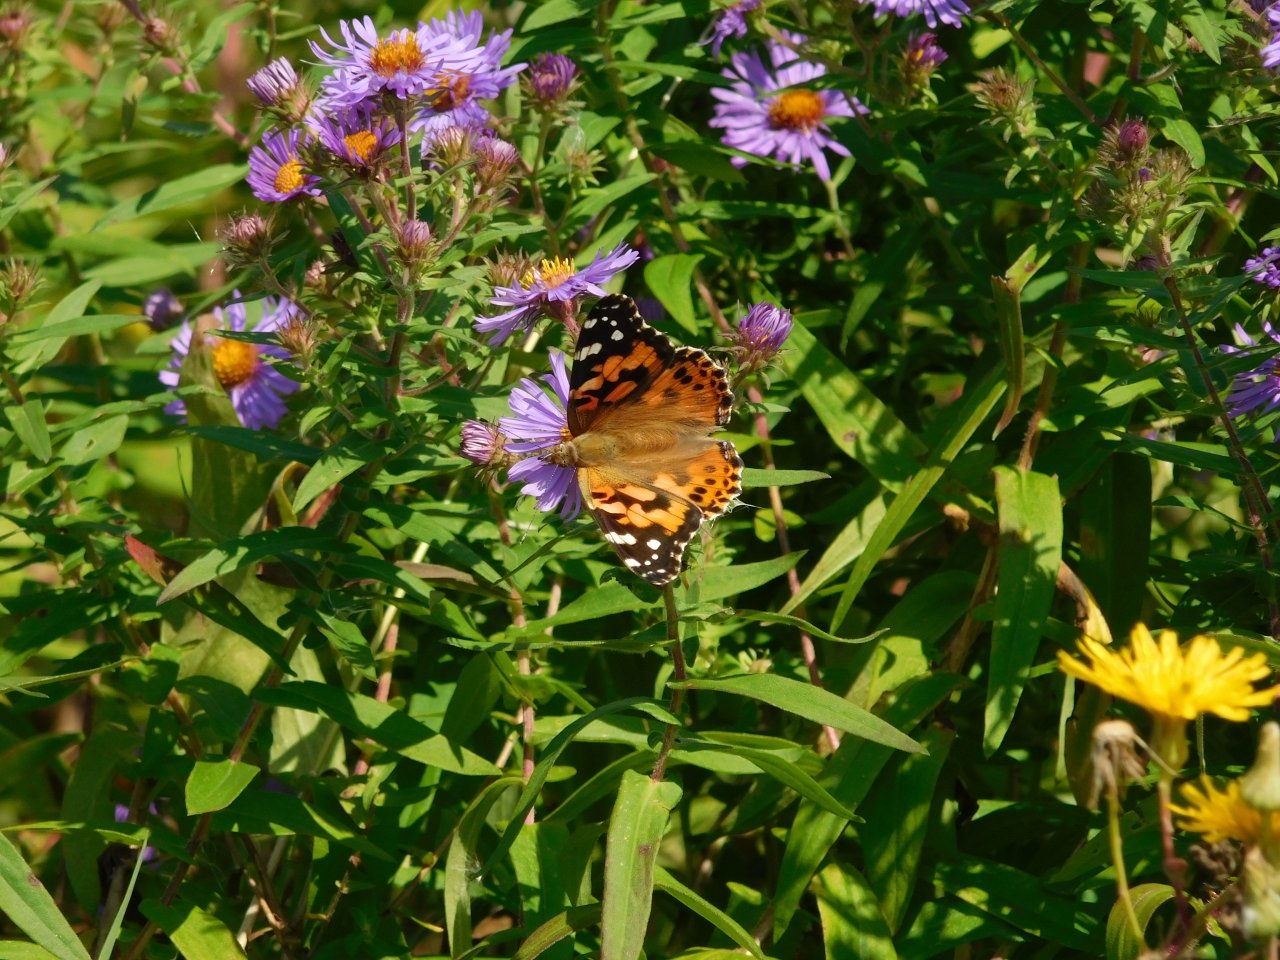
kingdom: Animalia
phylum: Arthropoda
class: Insecta
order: Lepidoptera
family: Nymphalidae
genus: Vanessa
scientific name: Vanessa cardui
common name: Painted Lady
